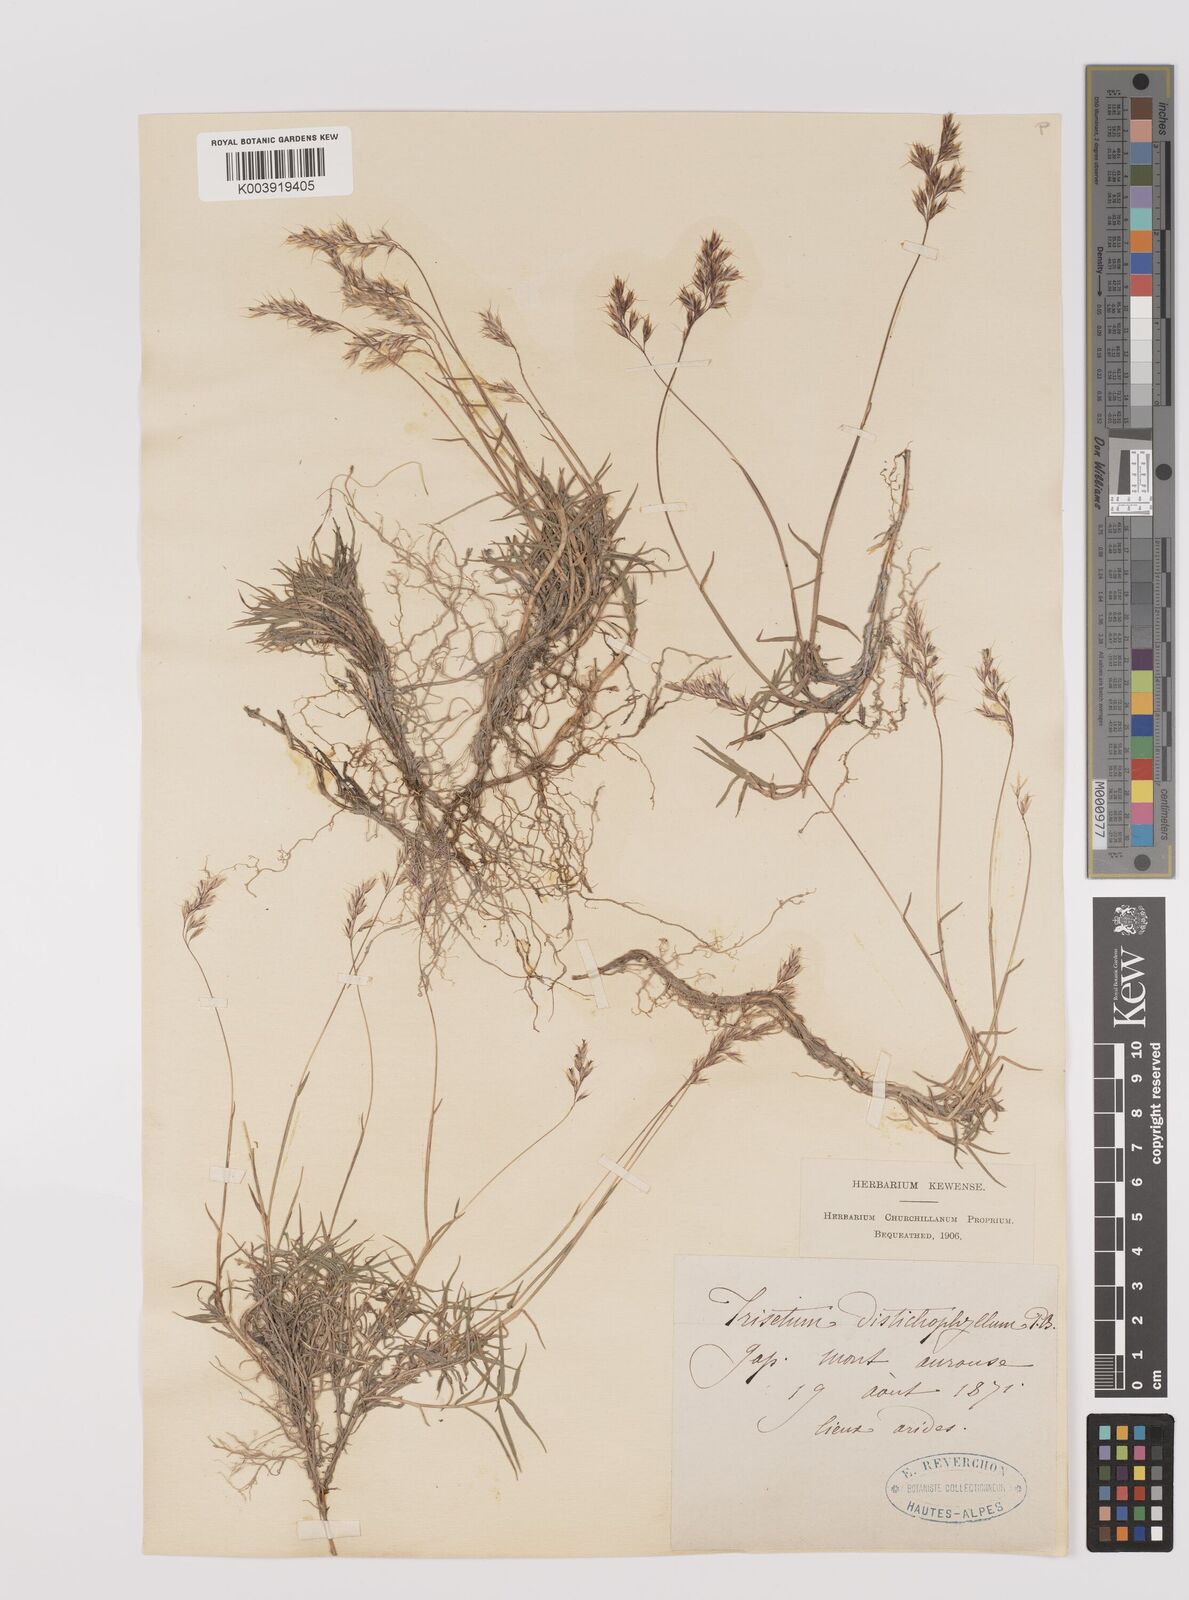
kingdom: Plantae
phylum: Tracheophyta
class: Liliopsida
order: Poales
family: Poaceae
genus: Acrospelion
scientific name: Acrospelion distichophyllum
